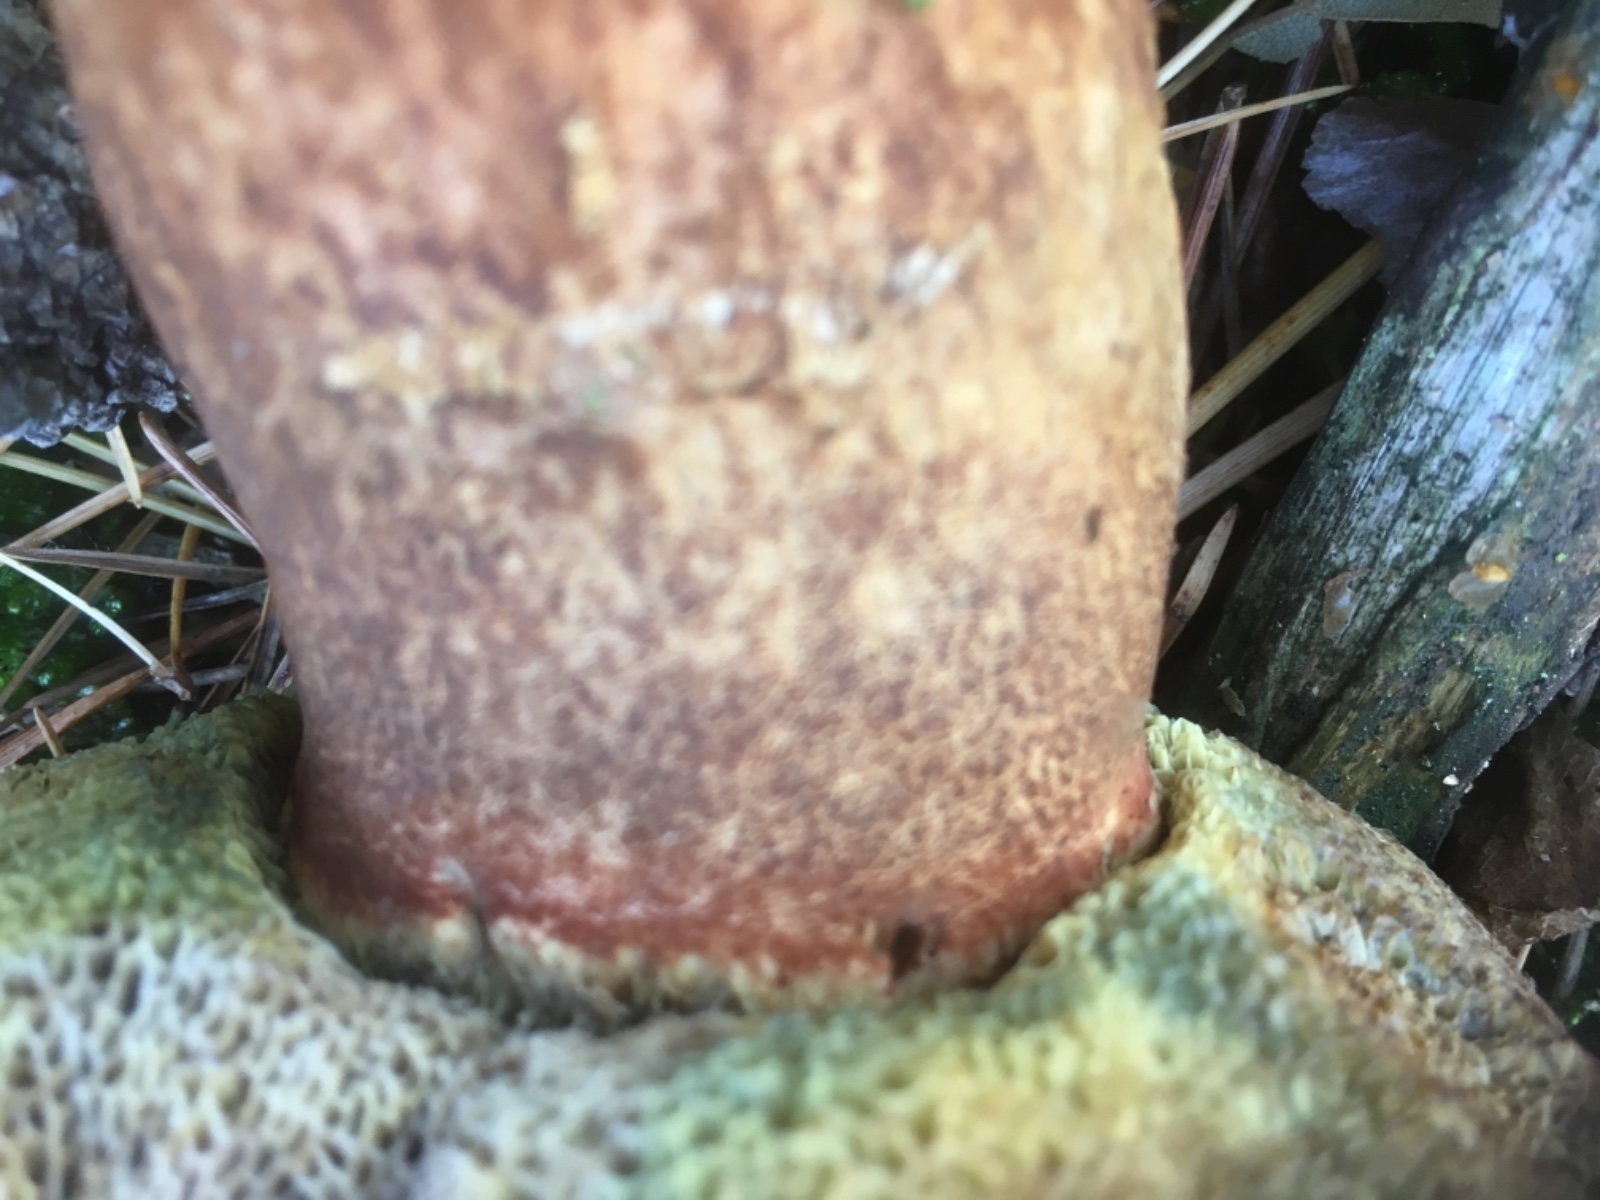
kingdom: Fungi
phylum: Basidiomycota
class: Agaricomycetes
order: Boletales
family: Boletaceae
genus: Imleria
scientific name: Imleria badia
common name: brunstokket rørhat
